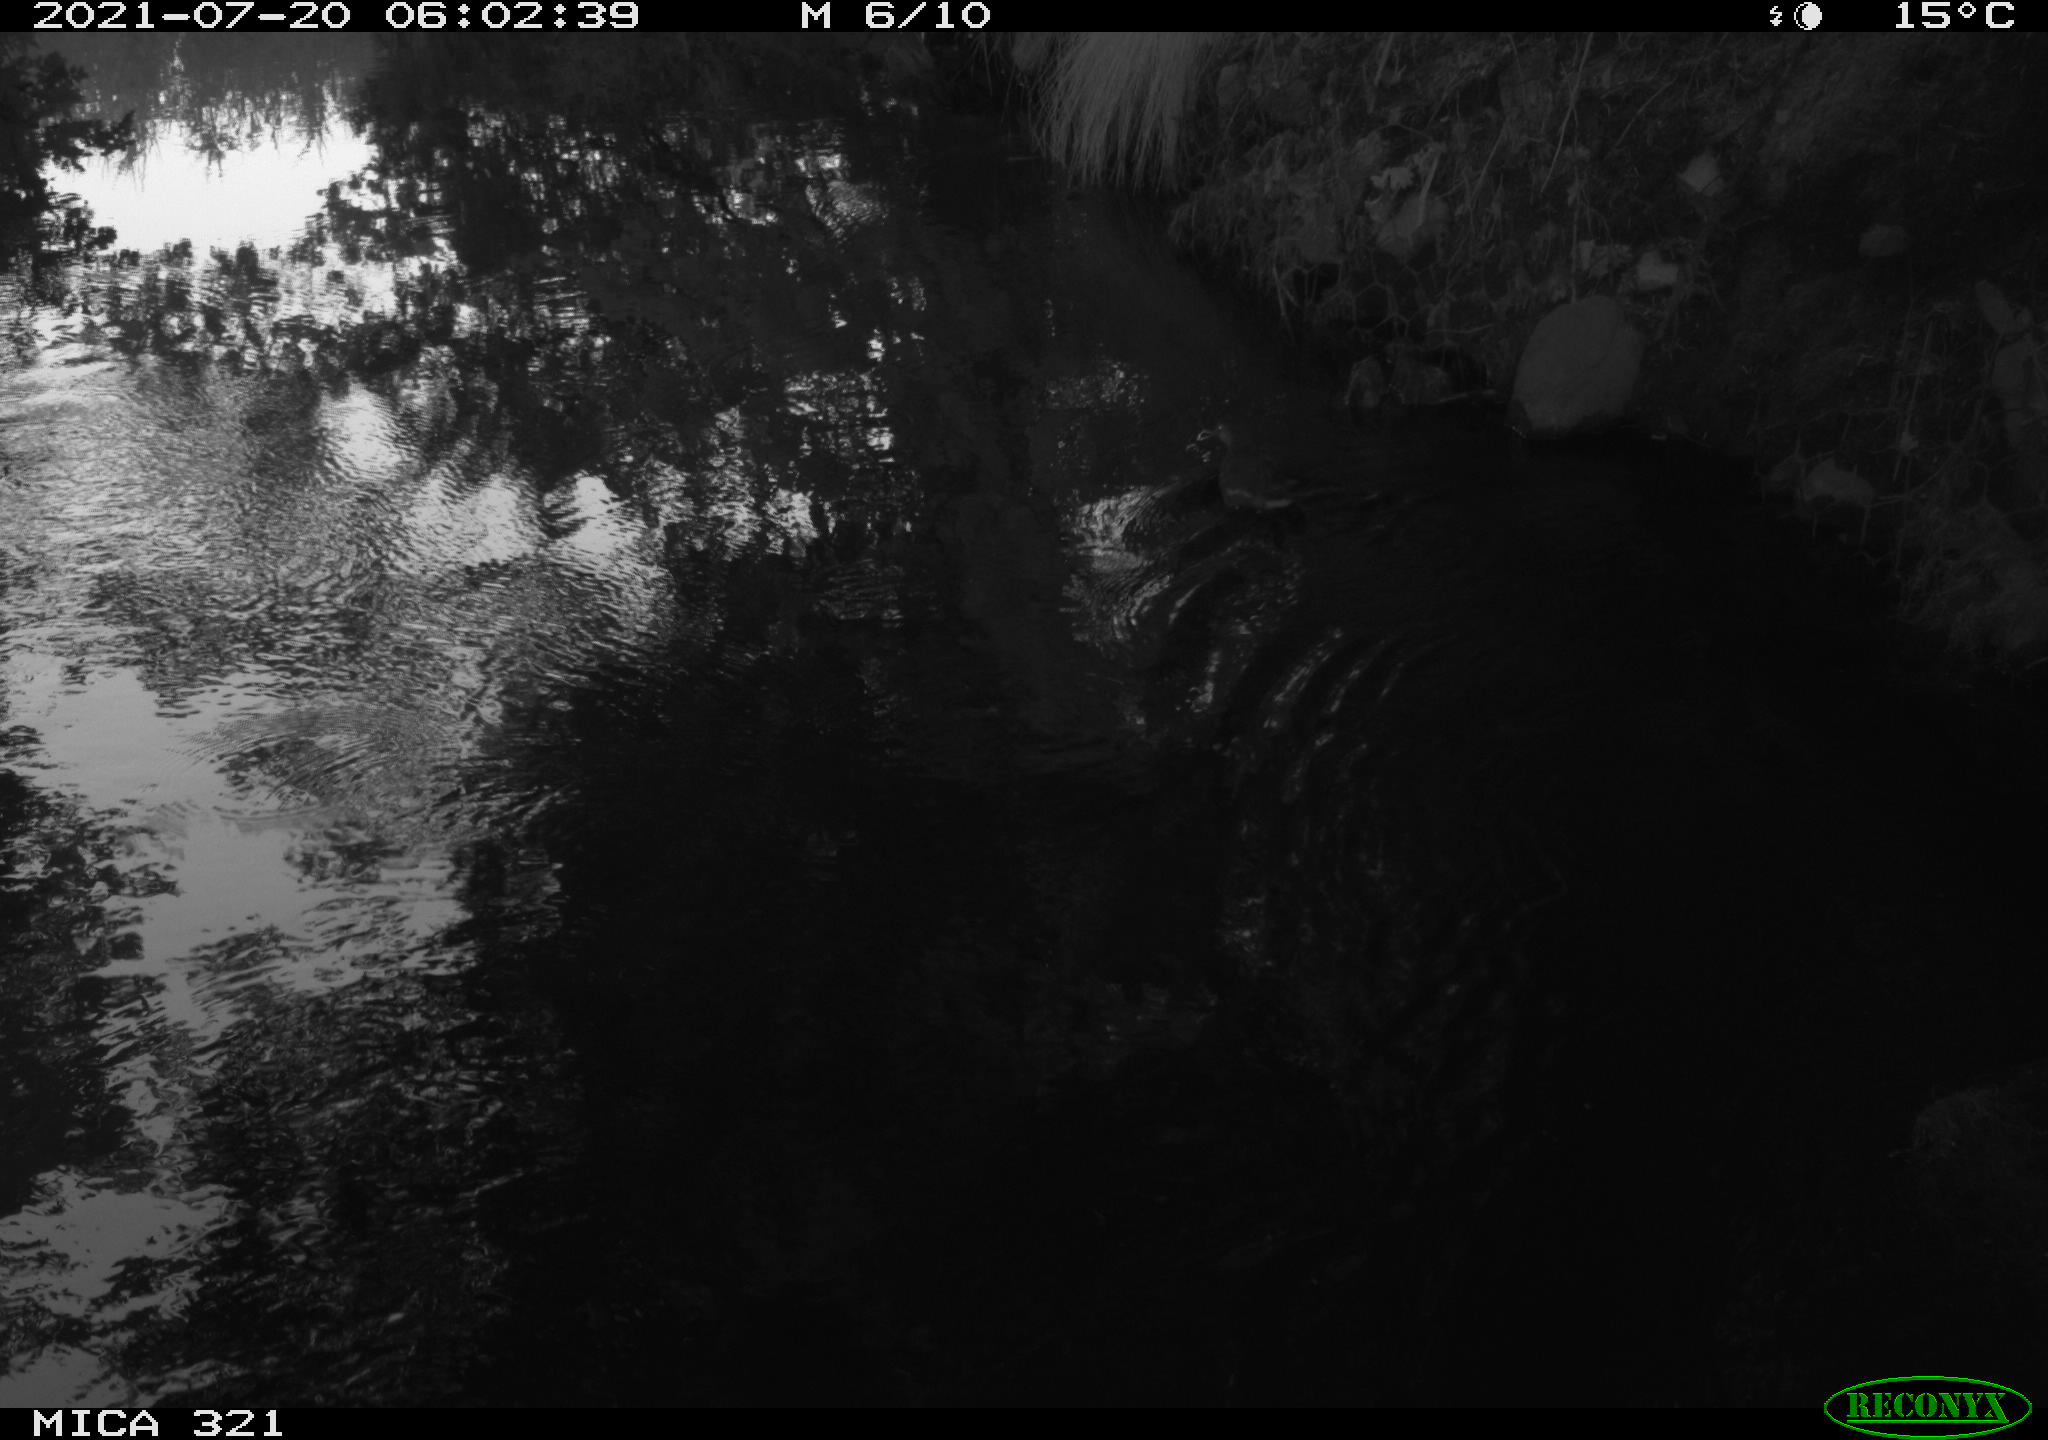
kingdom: Animalia
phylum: Chordata
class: Aves
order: Gruiformes
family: Rallidae
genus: Gallinula
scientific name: Gallinula chloropus
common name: Common moorhen
